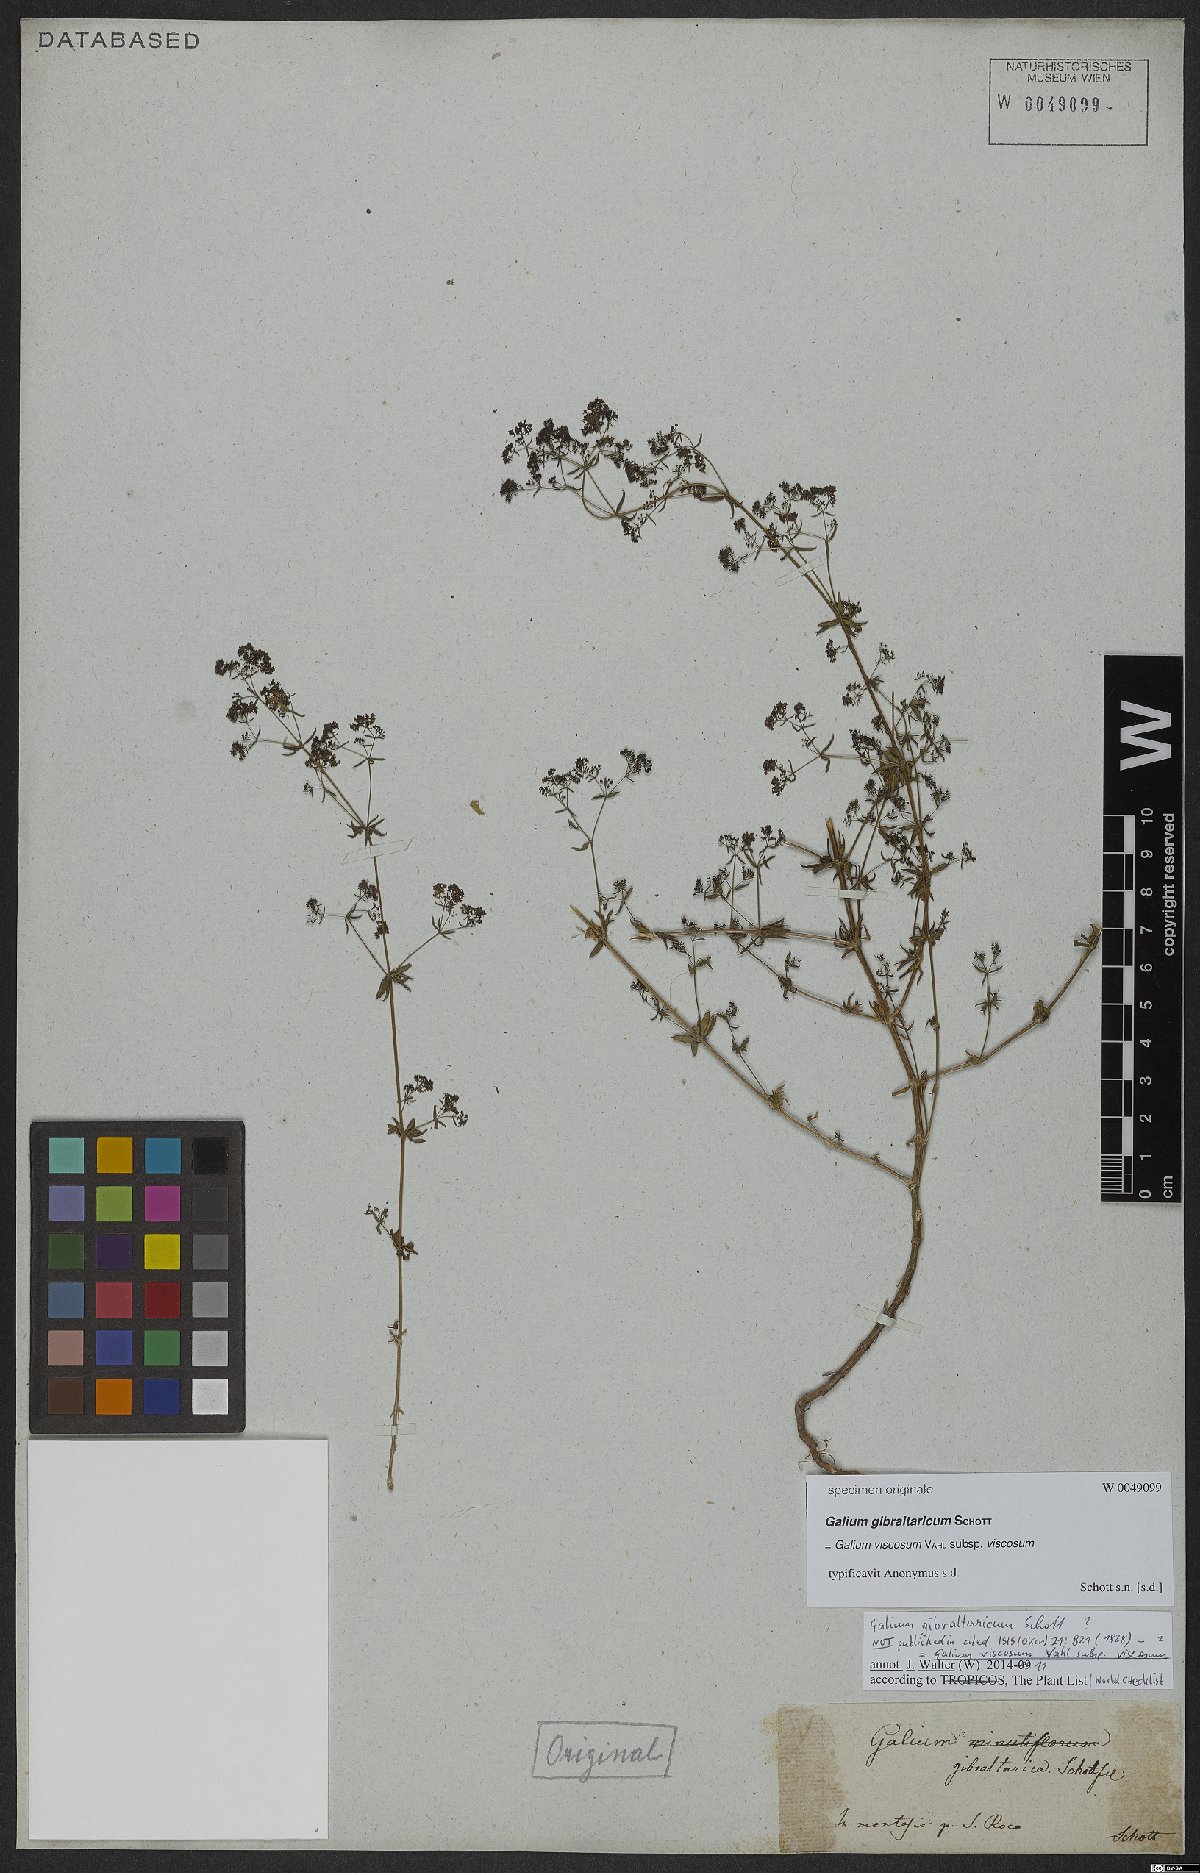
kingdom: Plantae
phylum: Tracheophyta
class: Magnoliopsida
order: Gentianales
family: Rubiaceae
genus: Galium
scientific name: Galium viscosum
